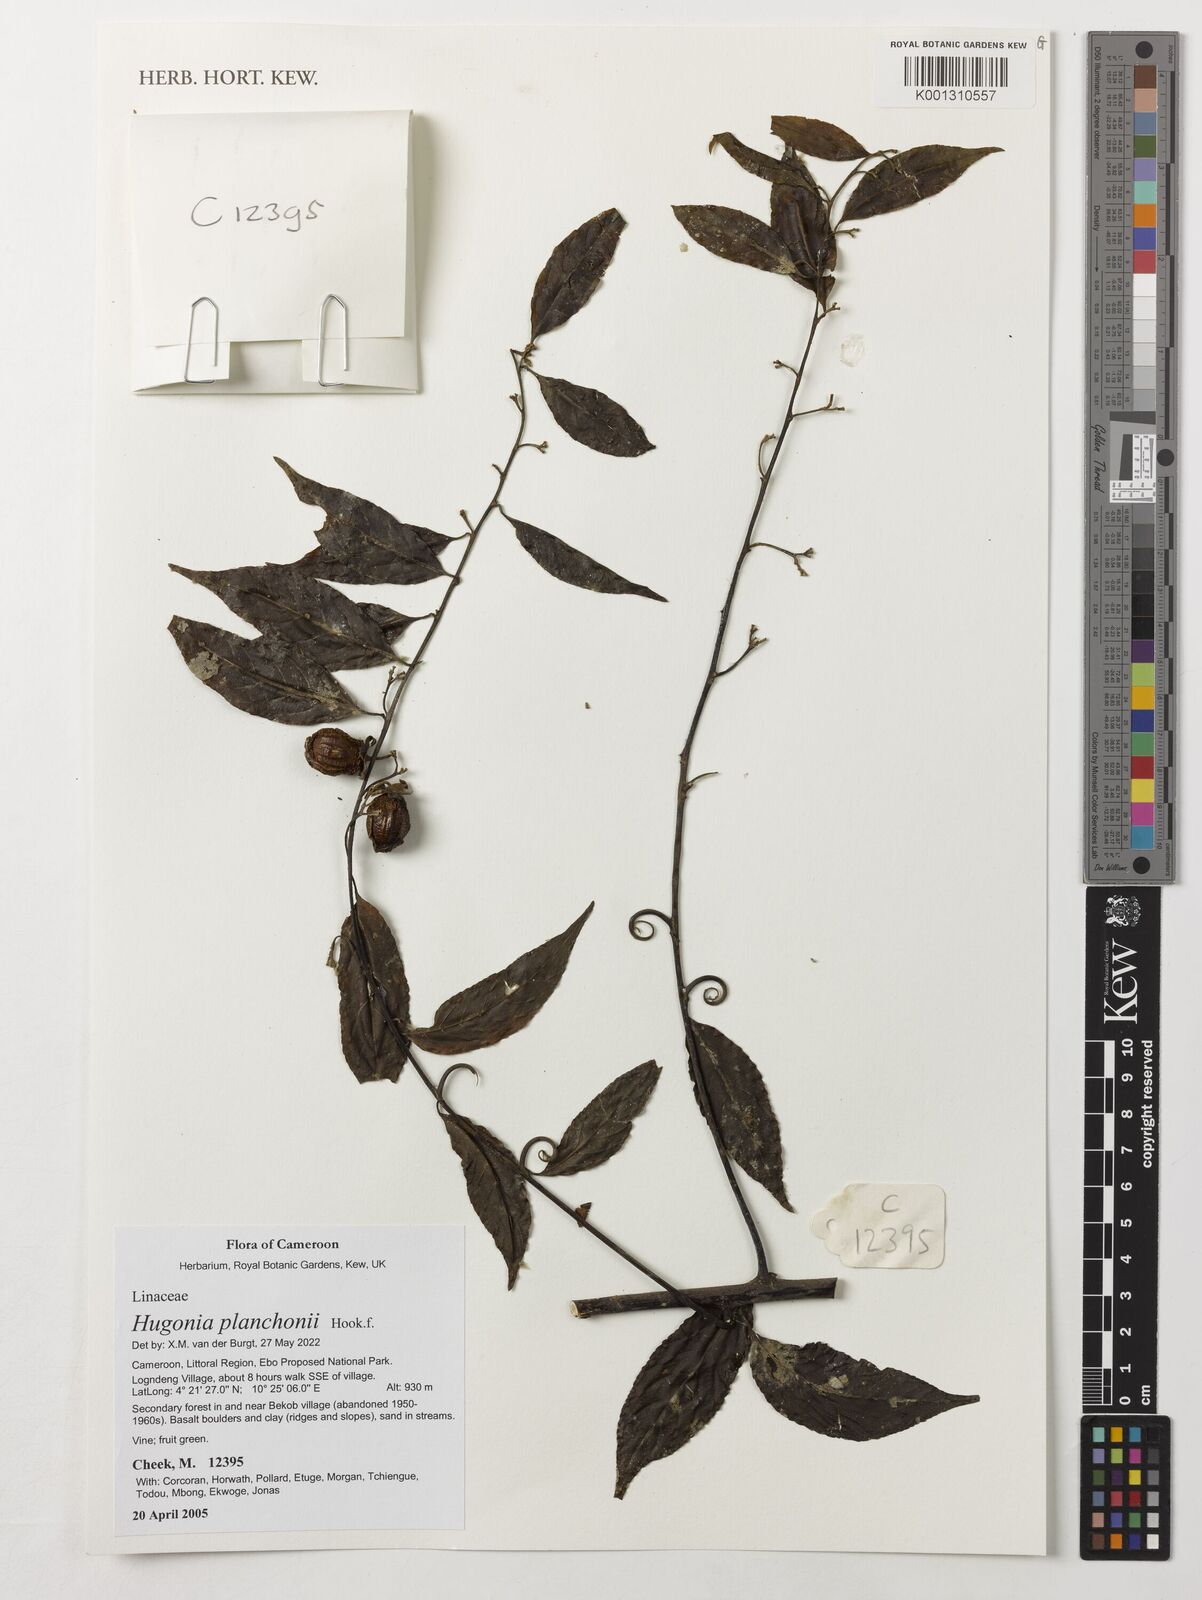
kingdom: Plantae
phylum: Tracheophyta
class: Magnoliopsida
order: Malpighiales
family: Linaceae
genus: Hugonia
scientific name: Hugonia planchonii
